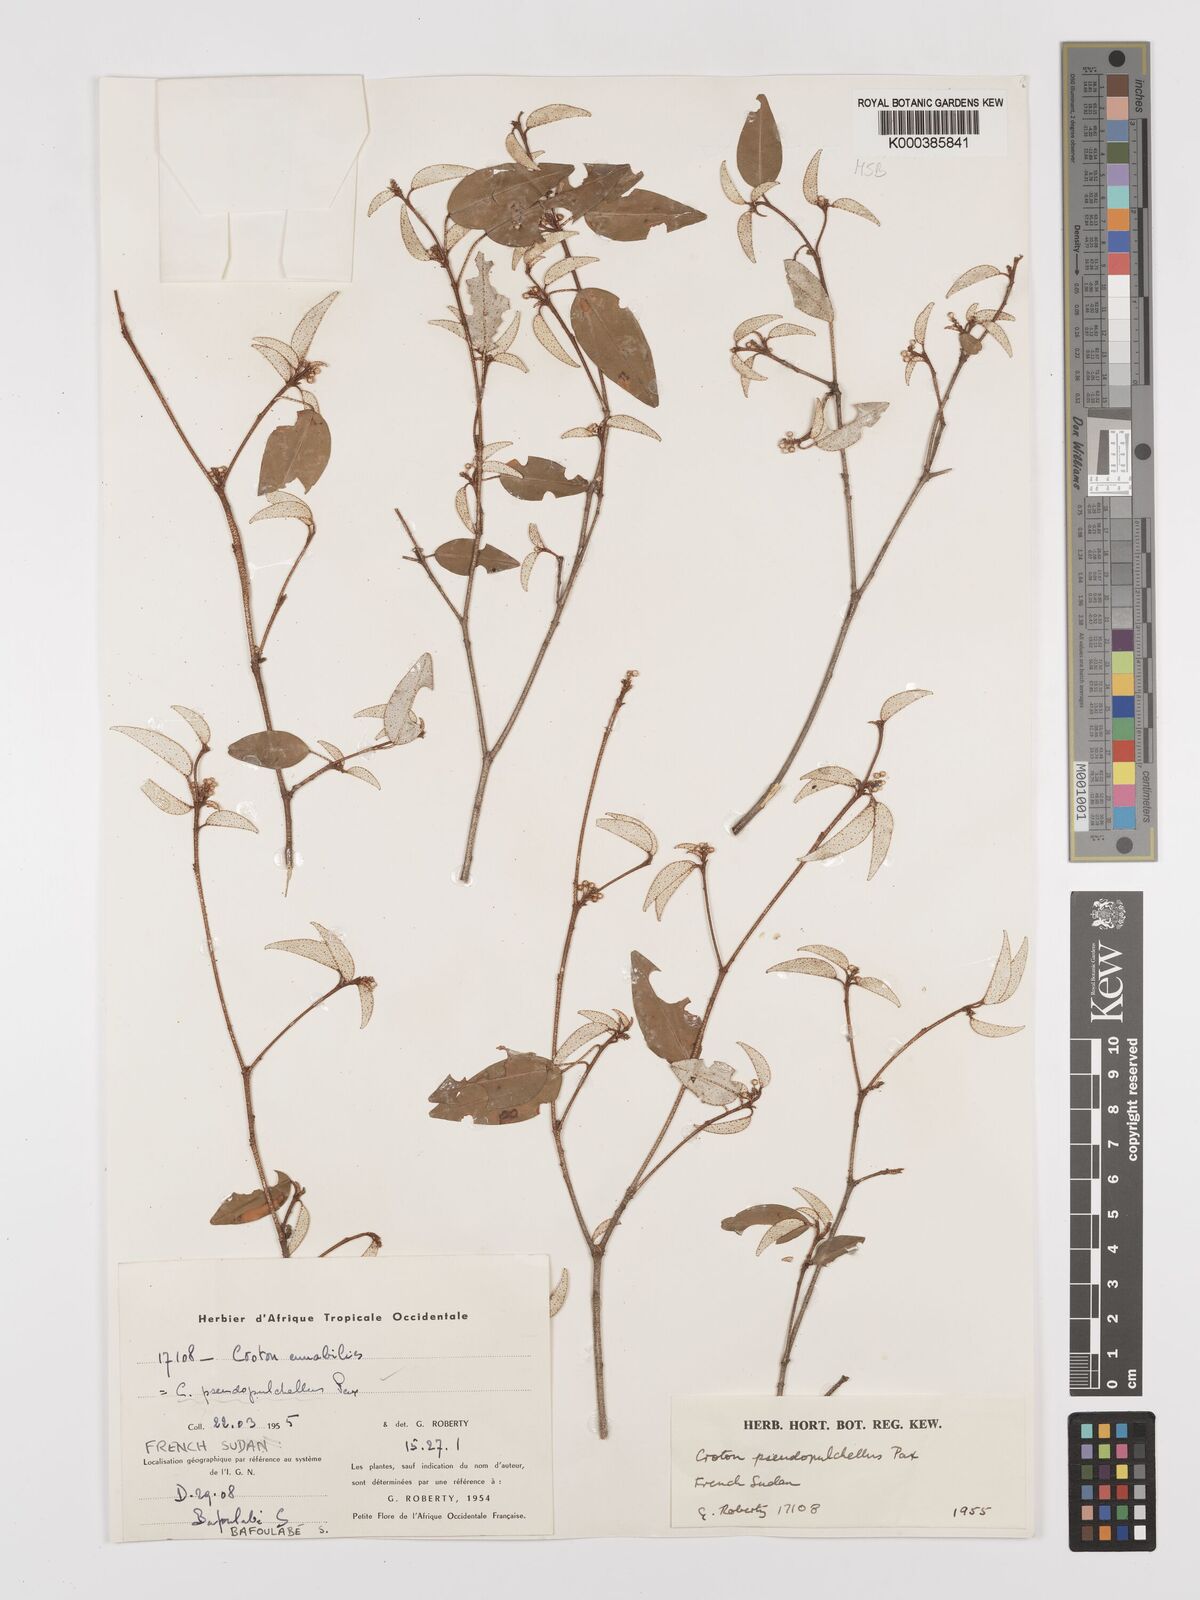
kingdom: Plantae
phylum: Tracheophyta
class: Magnoliopsida
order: Malpighiales
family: Euphorbiaceae
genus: Croton
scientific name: Croton pseudopulchellus
